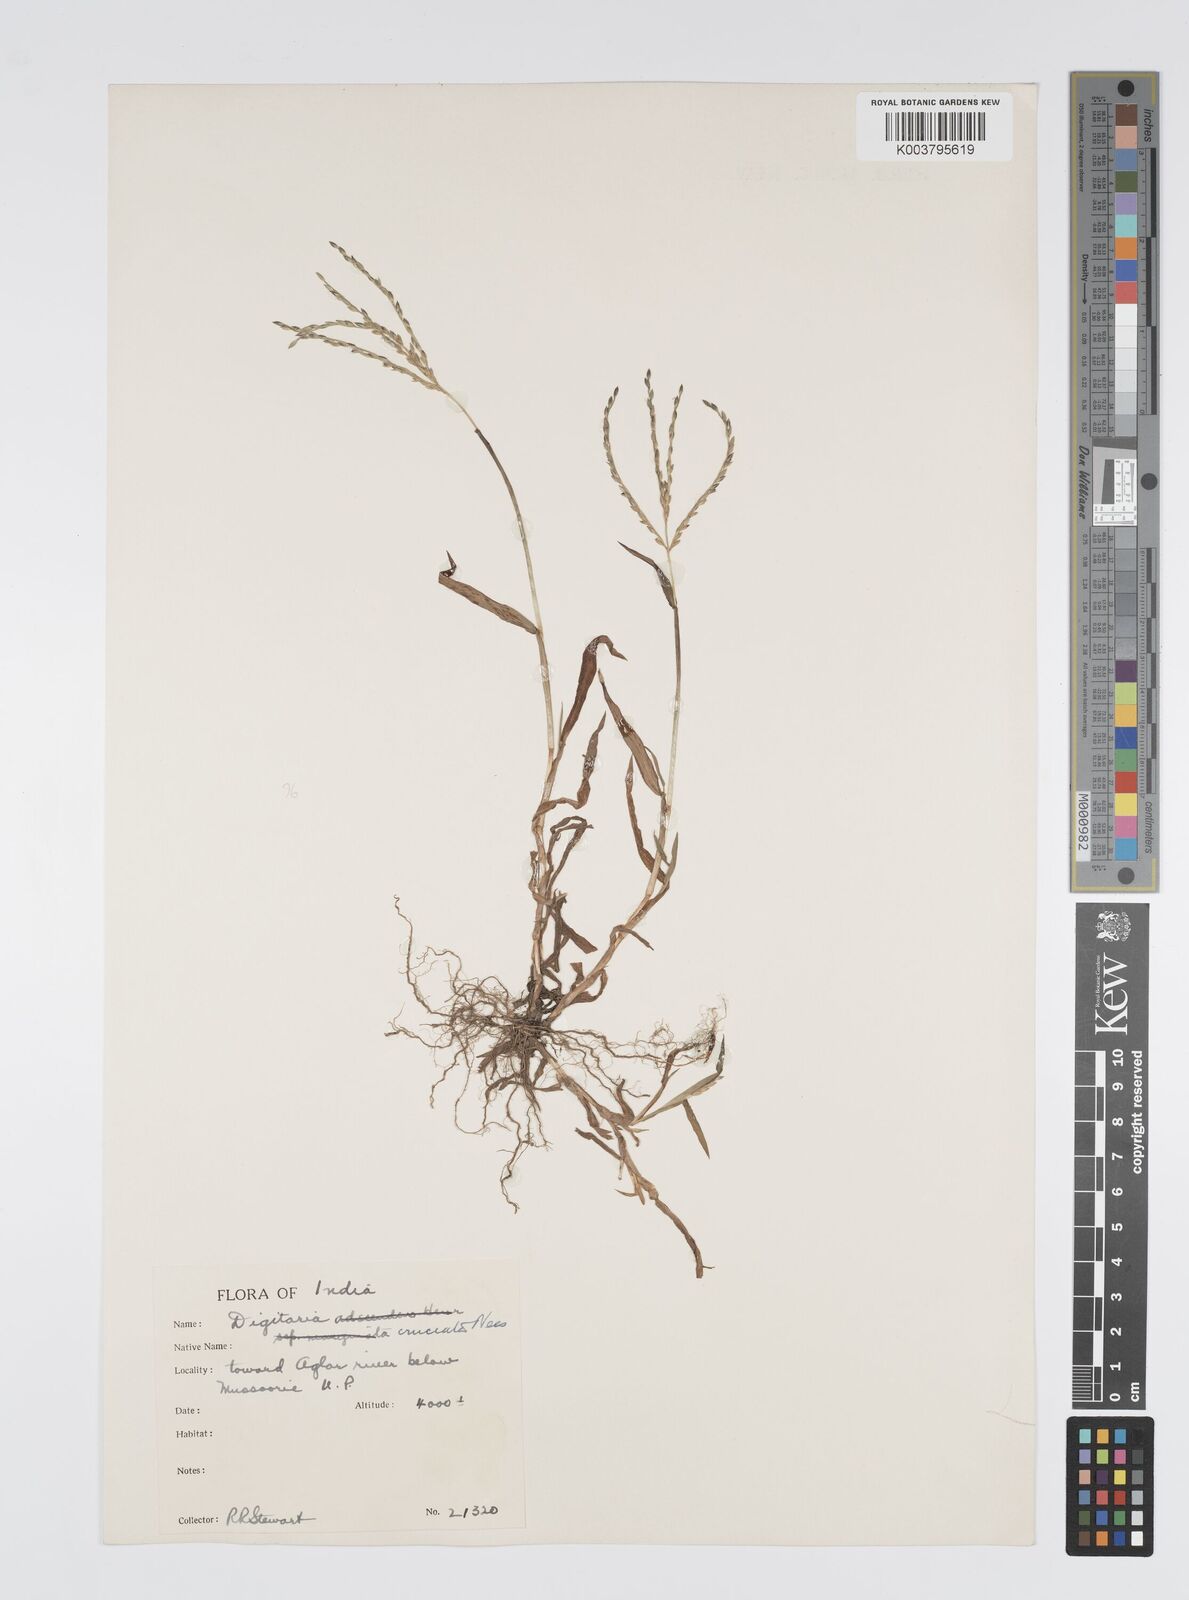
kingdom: Plantae
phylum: Tracheophyta
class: Liliopsida
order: Poales
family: Poaceae
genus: Digitaria
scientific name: Digitaria sanguinalis
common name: Hairy crabgrass
